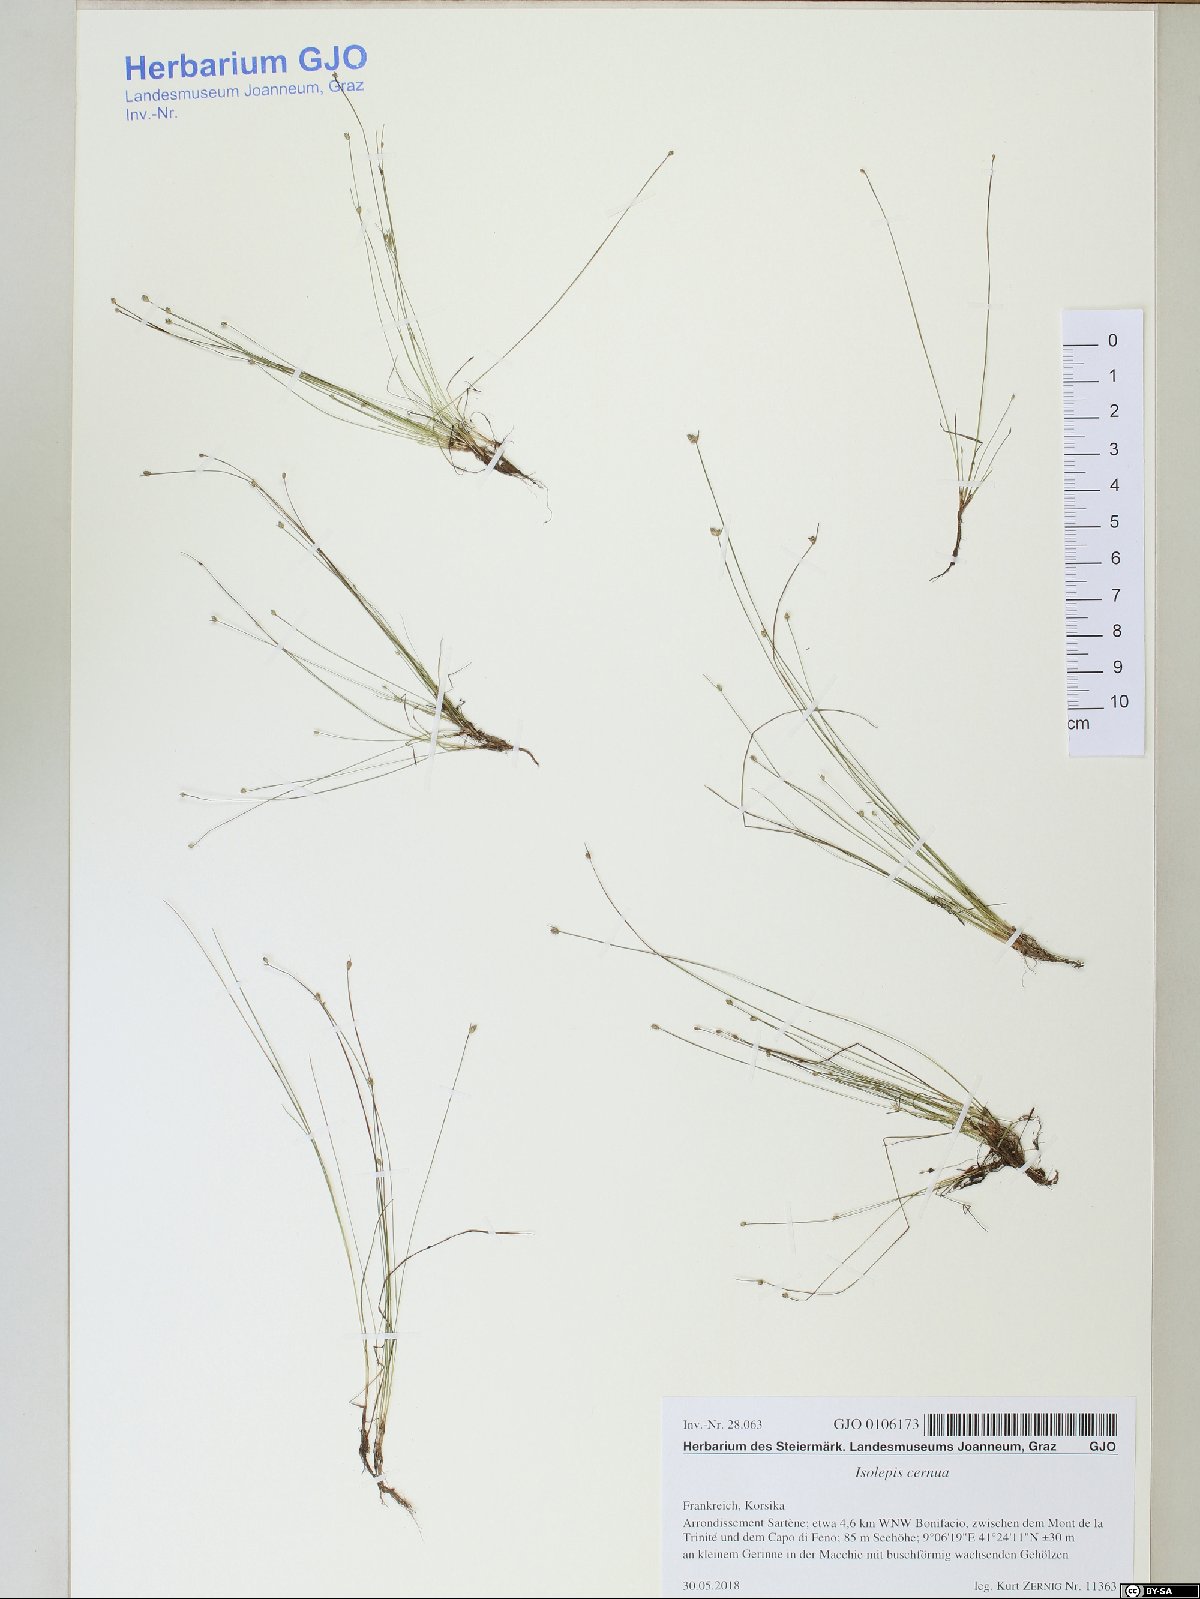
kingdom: Plantae
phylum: Tracheophyta
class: Liliopsida
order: Poales
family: Cyperaceae
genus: Isolepis
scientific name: Isolepis cernua
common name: Slender club-rush
